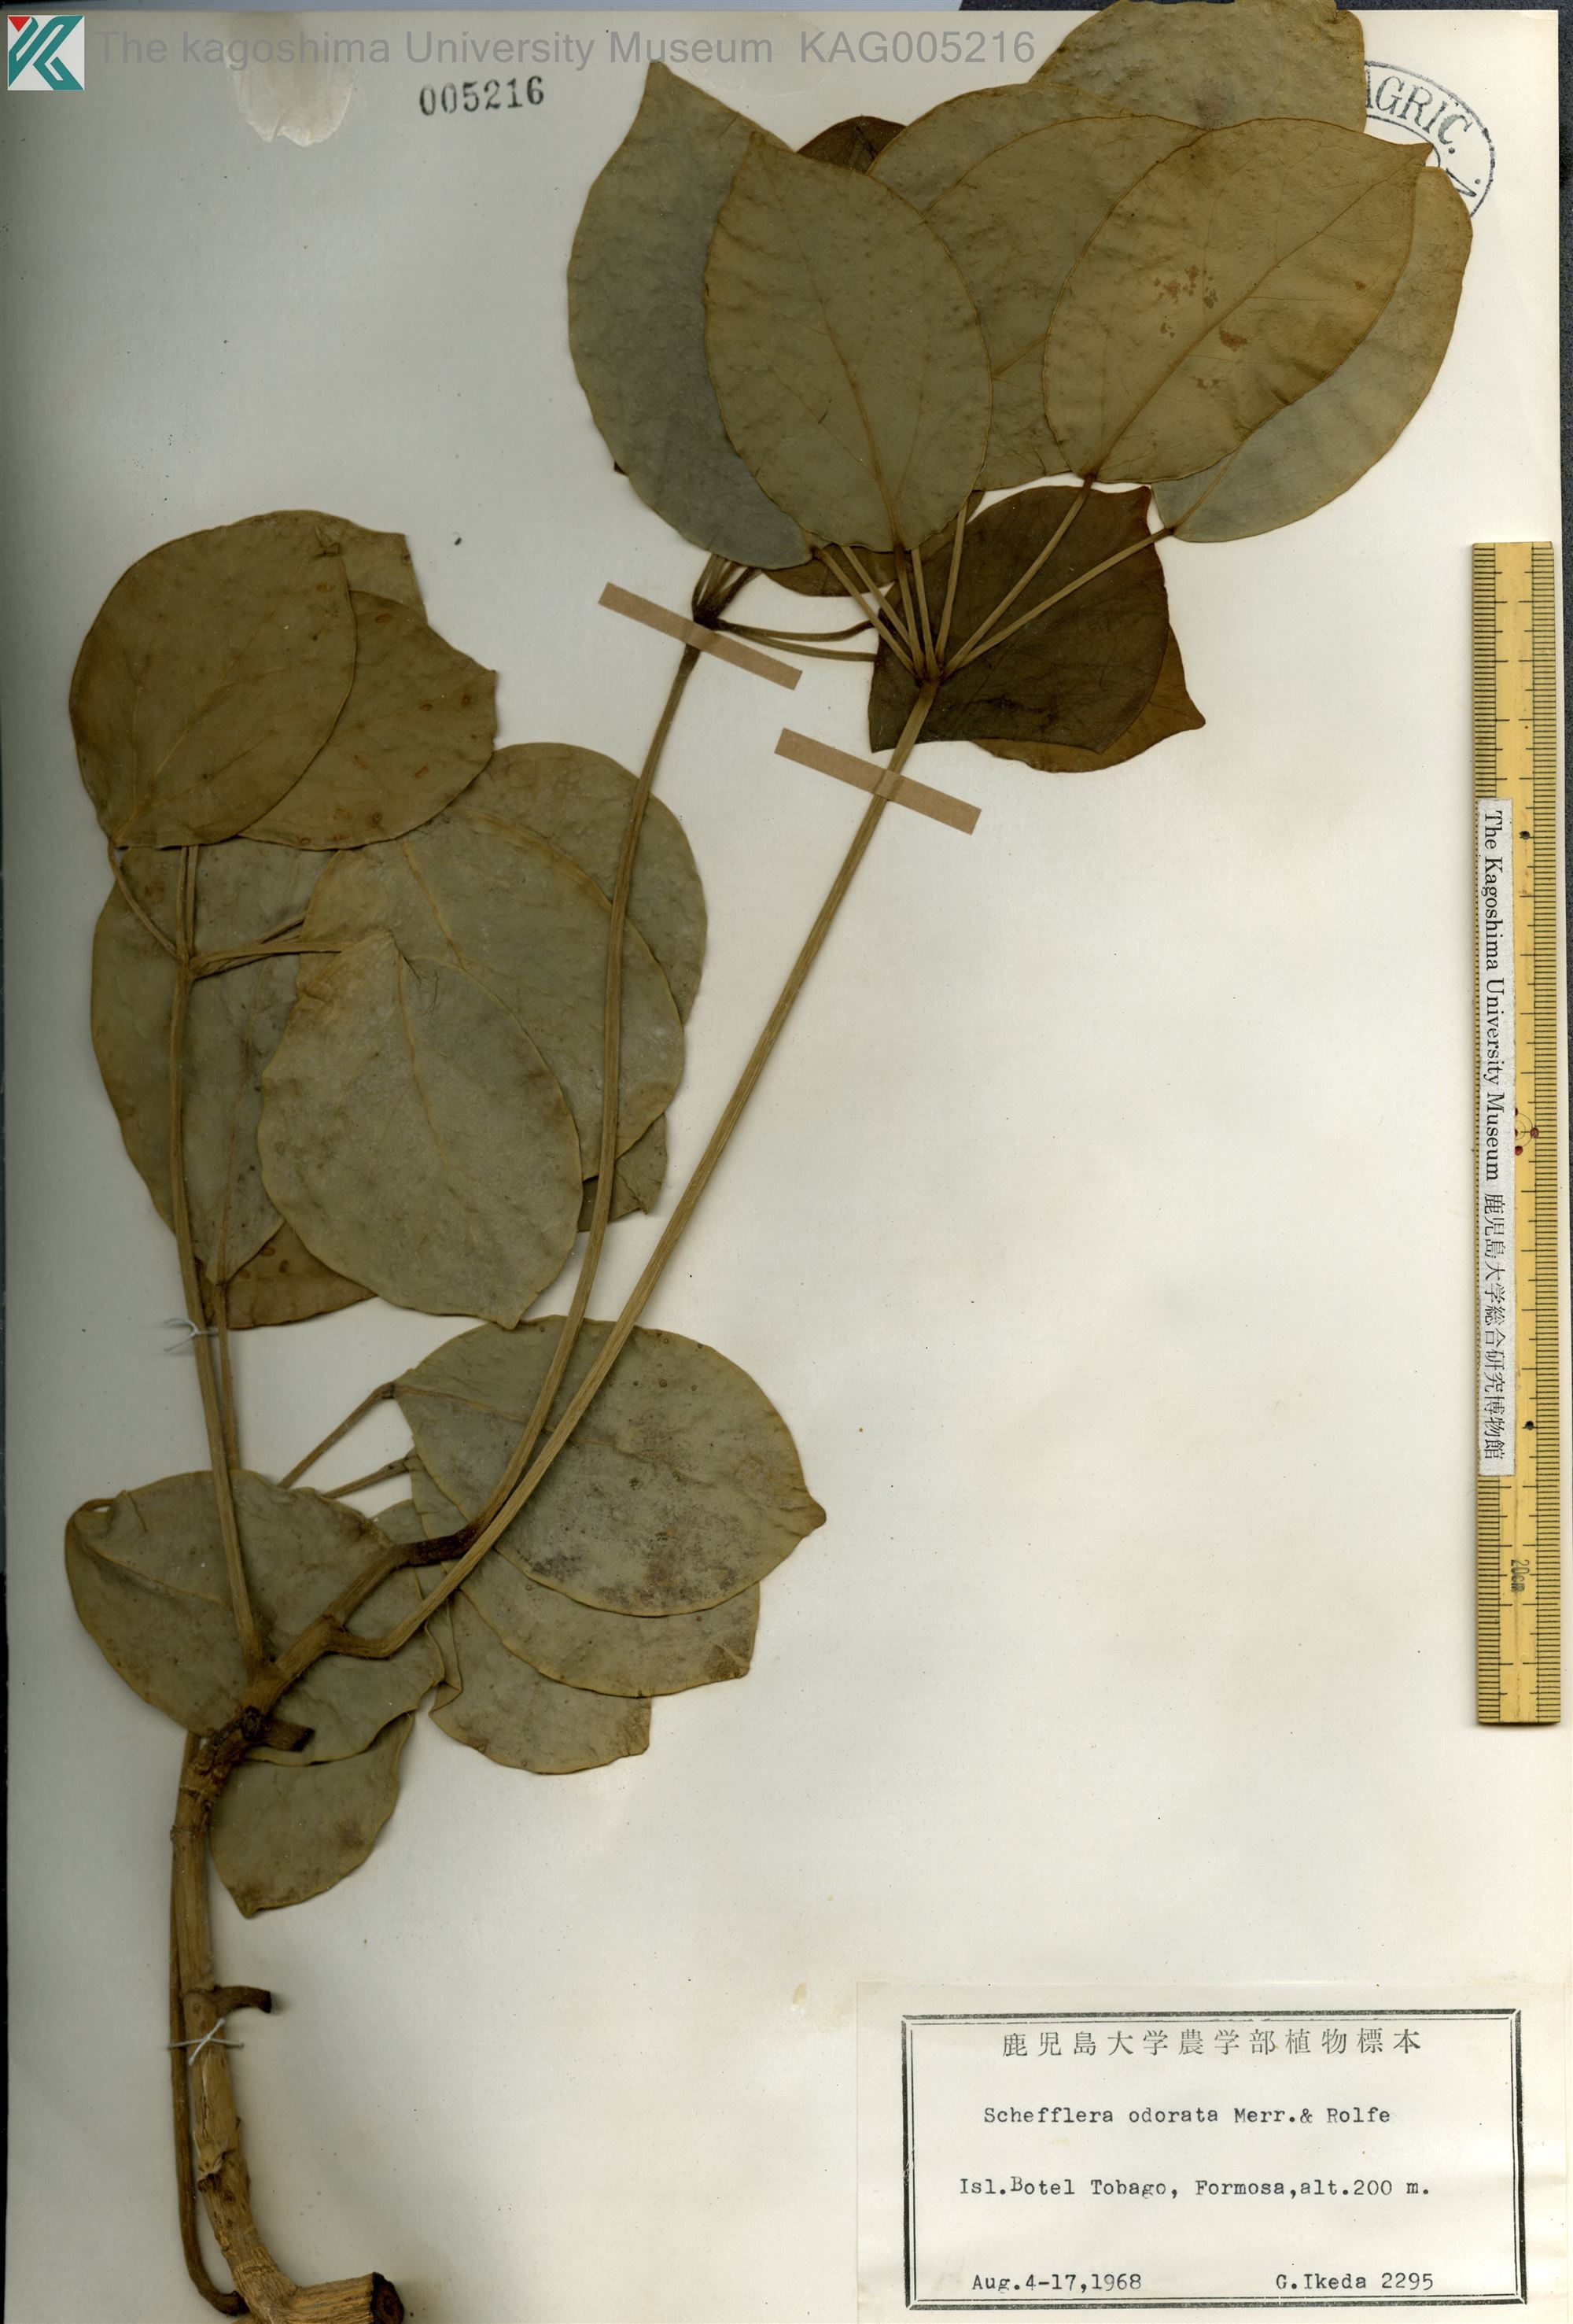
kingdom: Plantae
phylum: Tracheophyta
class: Magnoliopsida
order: Apiales
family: Araliaceae
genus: Heptapleurum
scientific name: Heptapleurum ellipticum
